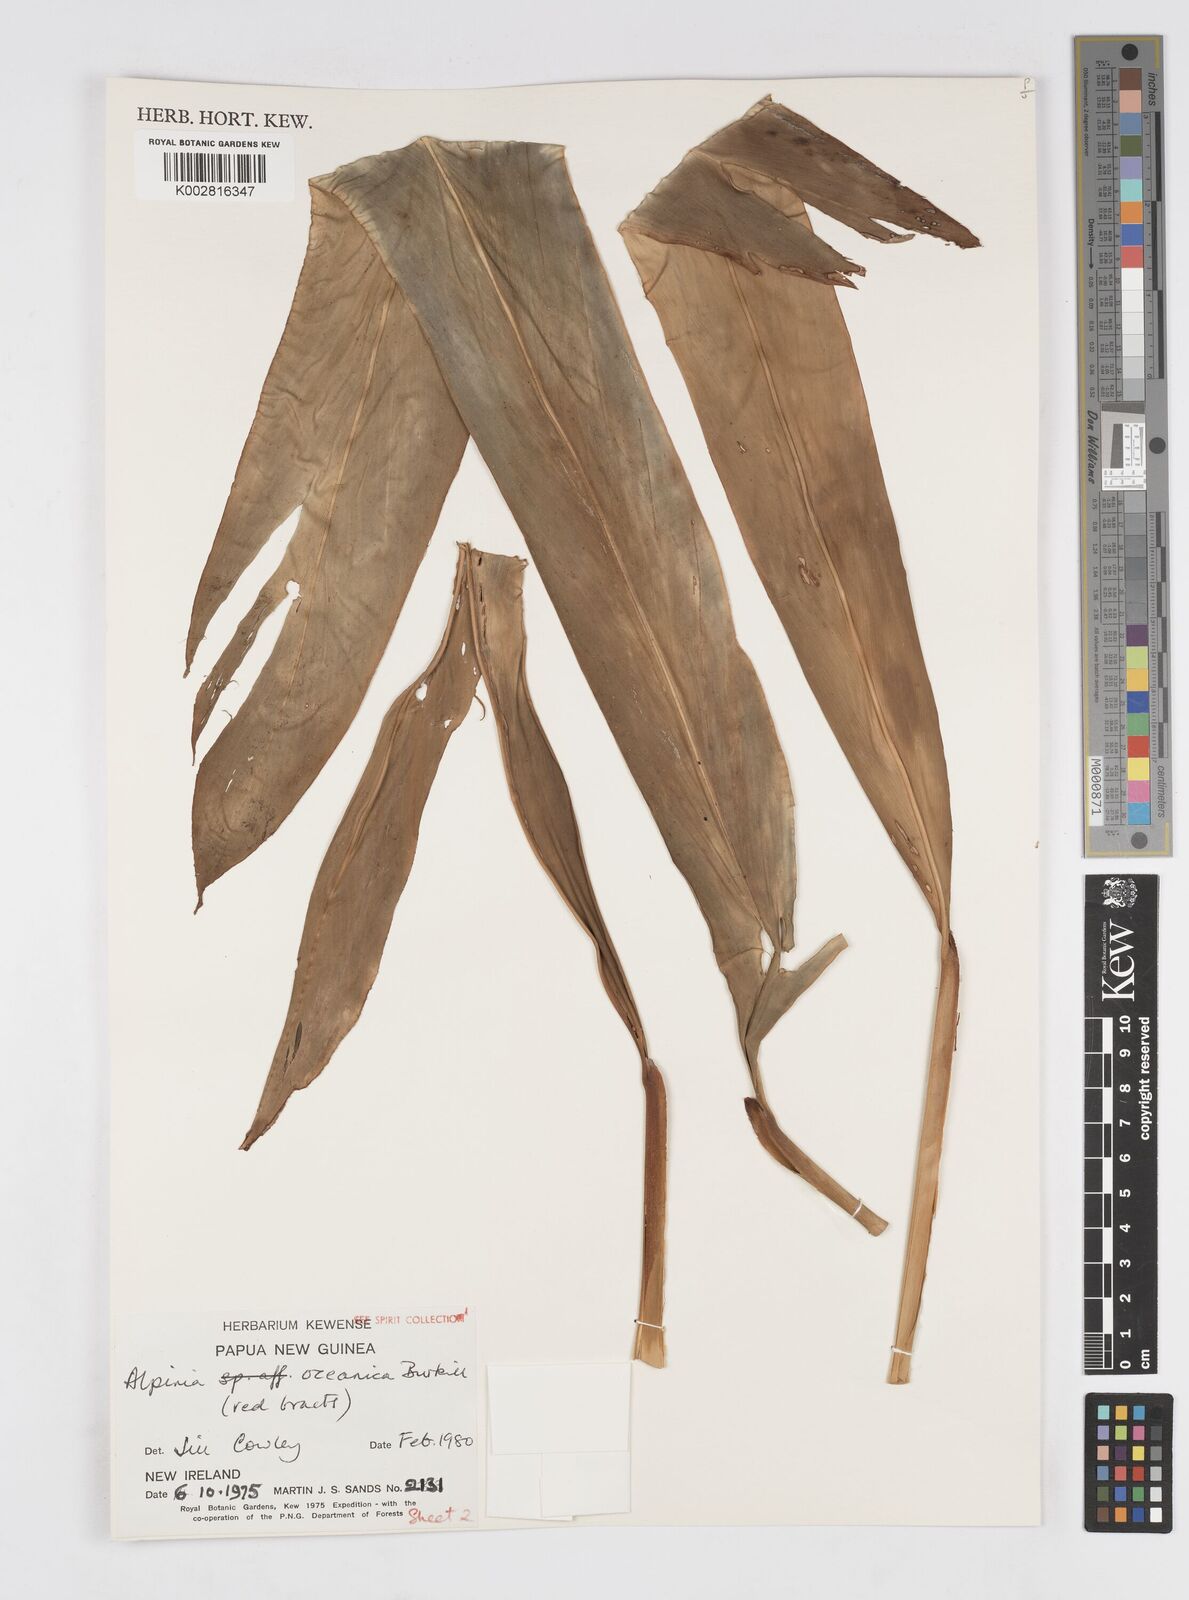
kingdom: Plantae
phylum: Tracheophyta
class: Liliopsida
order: Zingiberales
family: Zingiberaceae
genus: Alpinia
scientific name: Alpinia oceanica
